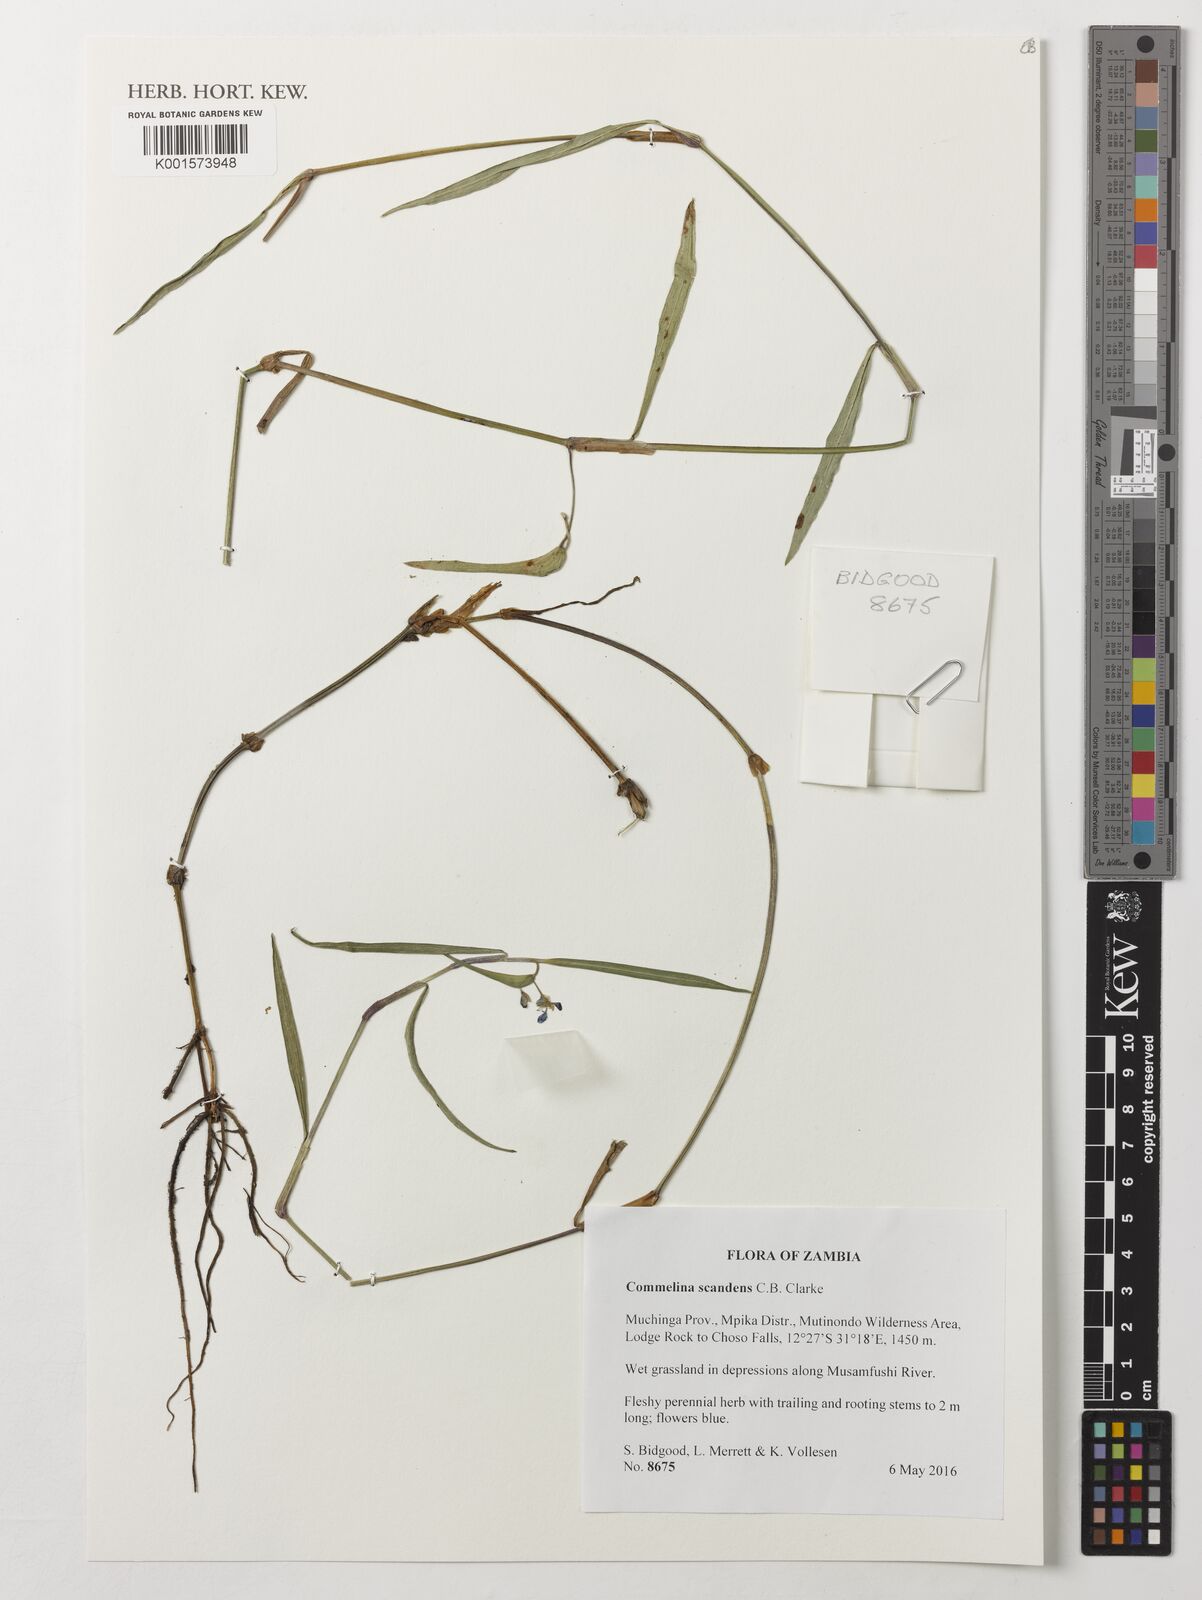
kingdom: Plantae
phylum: Tracheophyta
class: Liliopsida
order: Commelinales
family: Commelinaceae
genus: Commelina
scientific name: Commelina scandens
